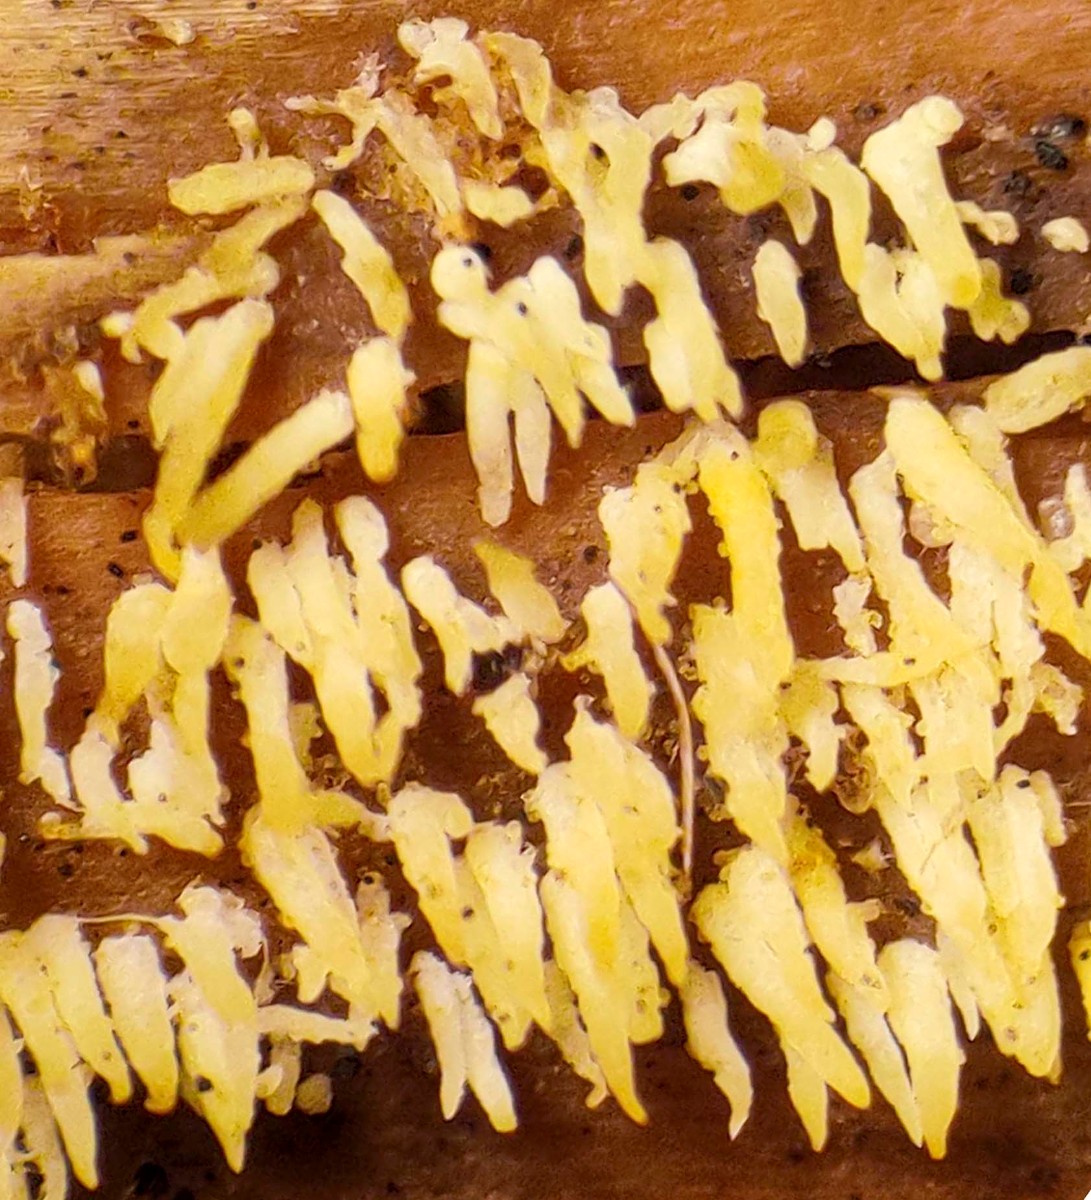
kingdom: Fungi
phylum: Basidiomycota
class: Agaricomycetes
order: Agaricales
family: Clavariaceae
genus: Mucronella
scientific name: Mucronella flava
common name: gul hængepig
